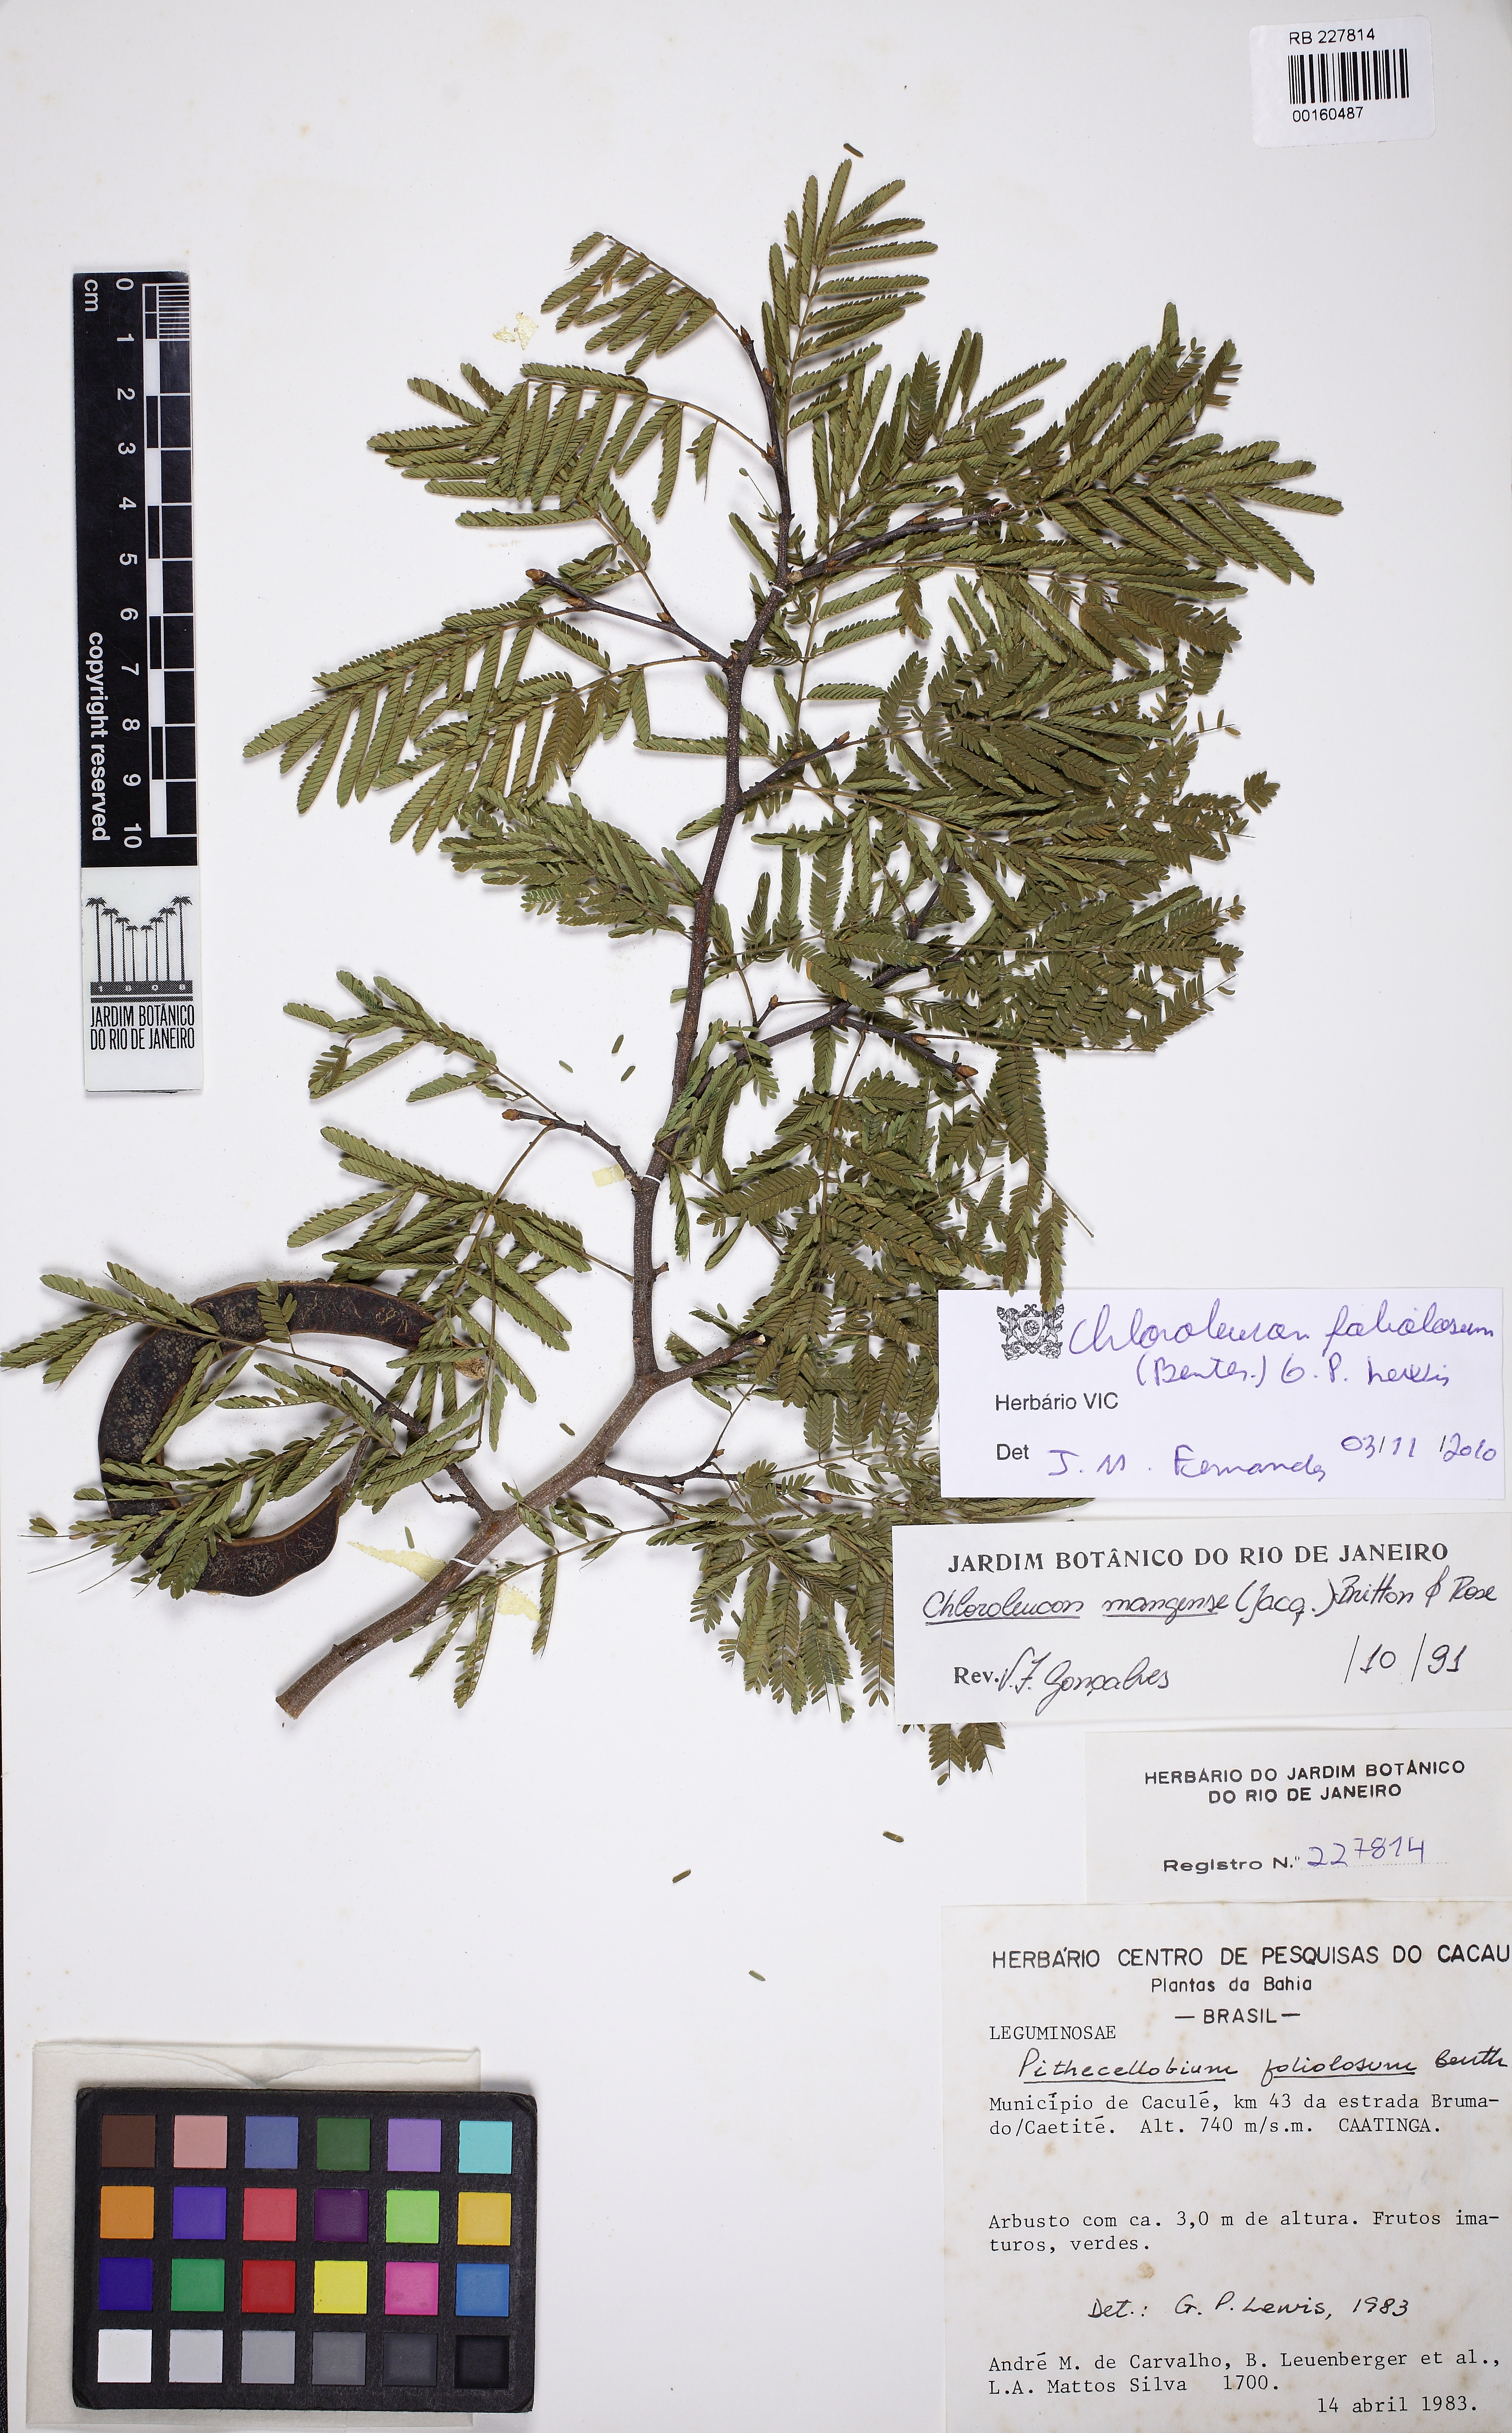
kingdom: Plantae
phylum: Tracheophyta
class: Magnoliopsida
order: Fabales
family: Fabaceae
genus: Chloroleucon
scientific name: Chloroleucon foliolosum
